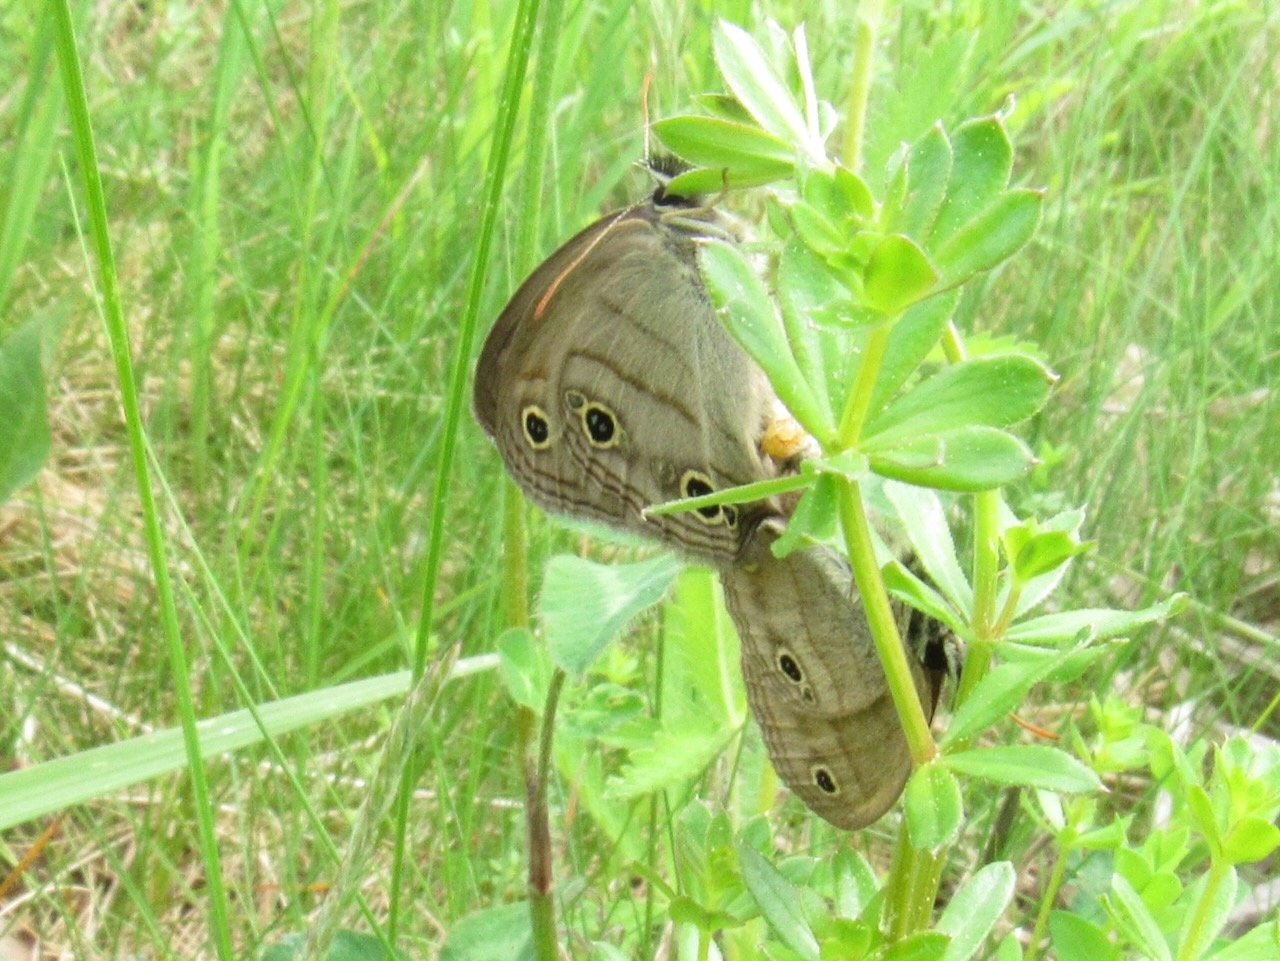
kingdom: Animalia
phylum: Arthropoda
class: Insecta
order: Lepidoptera
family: Nymphalidae
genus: Euptychia
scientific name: Euptychia cymela
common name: Little Wood Satyr
